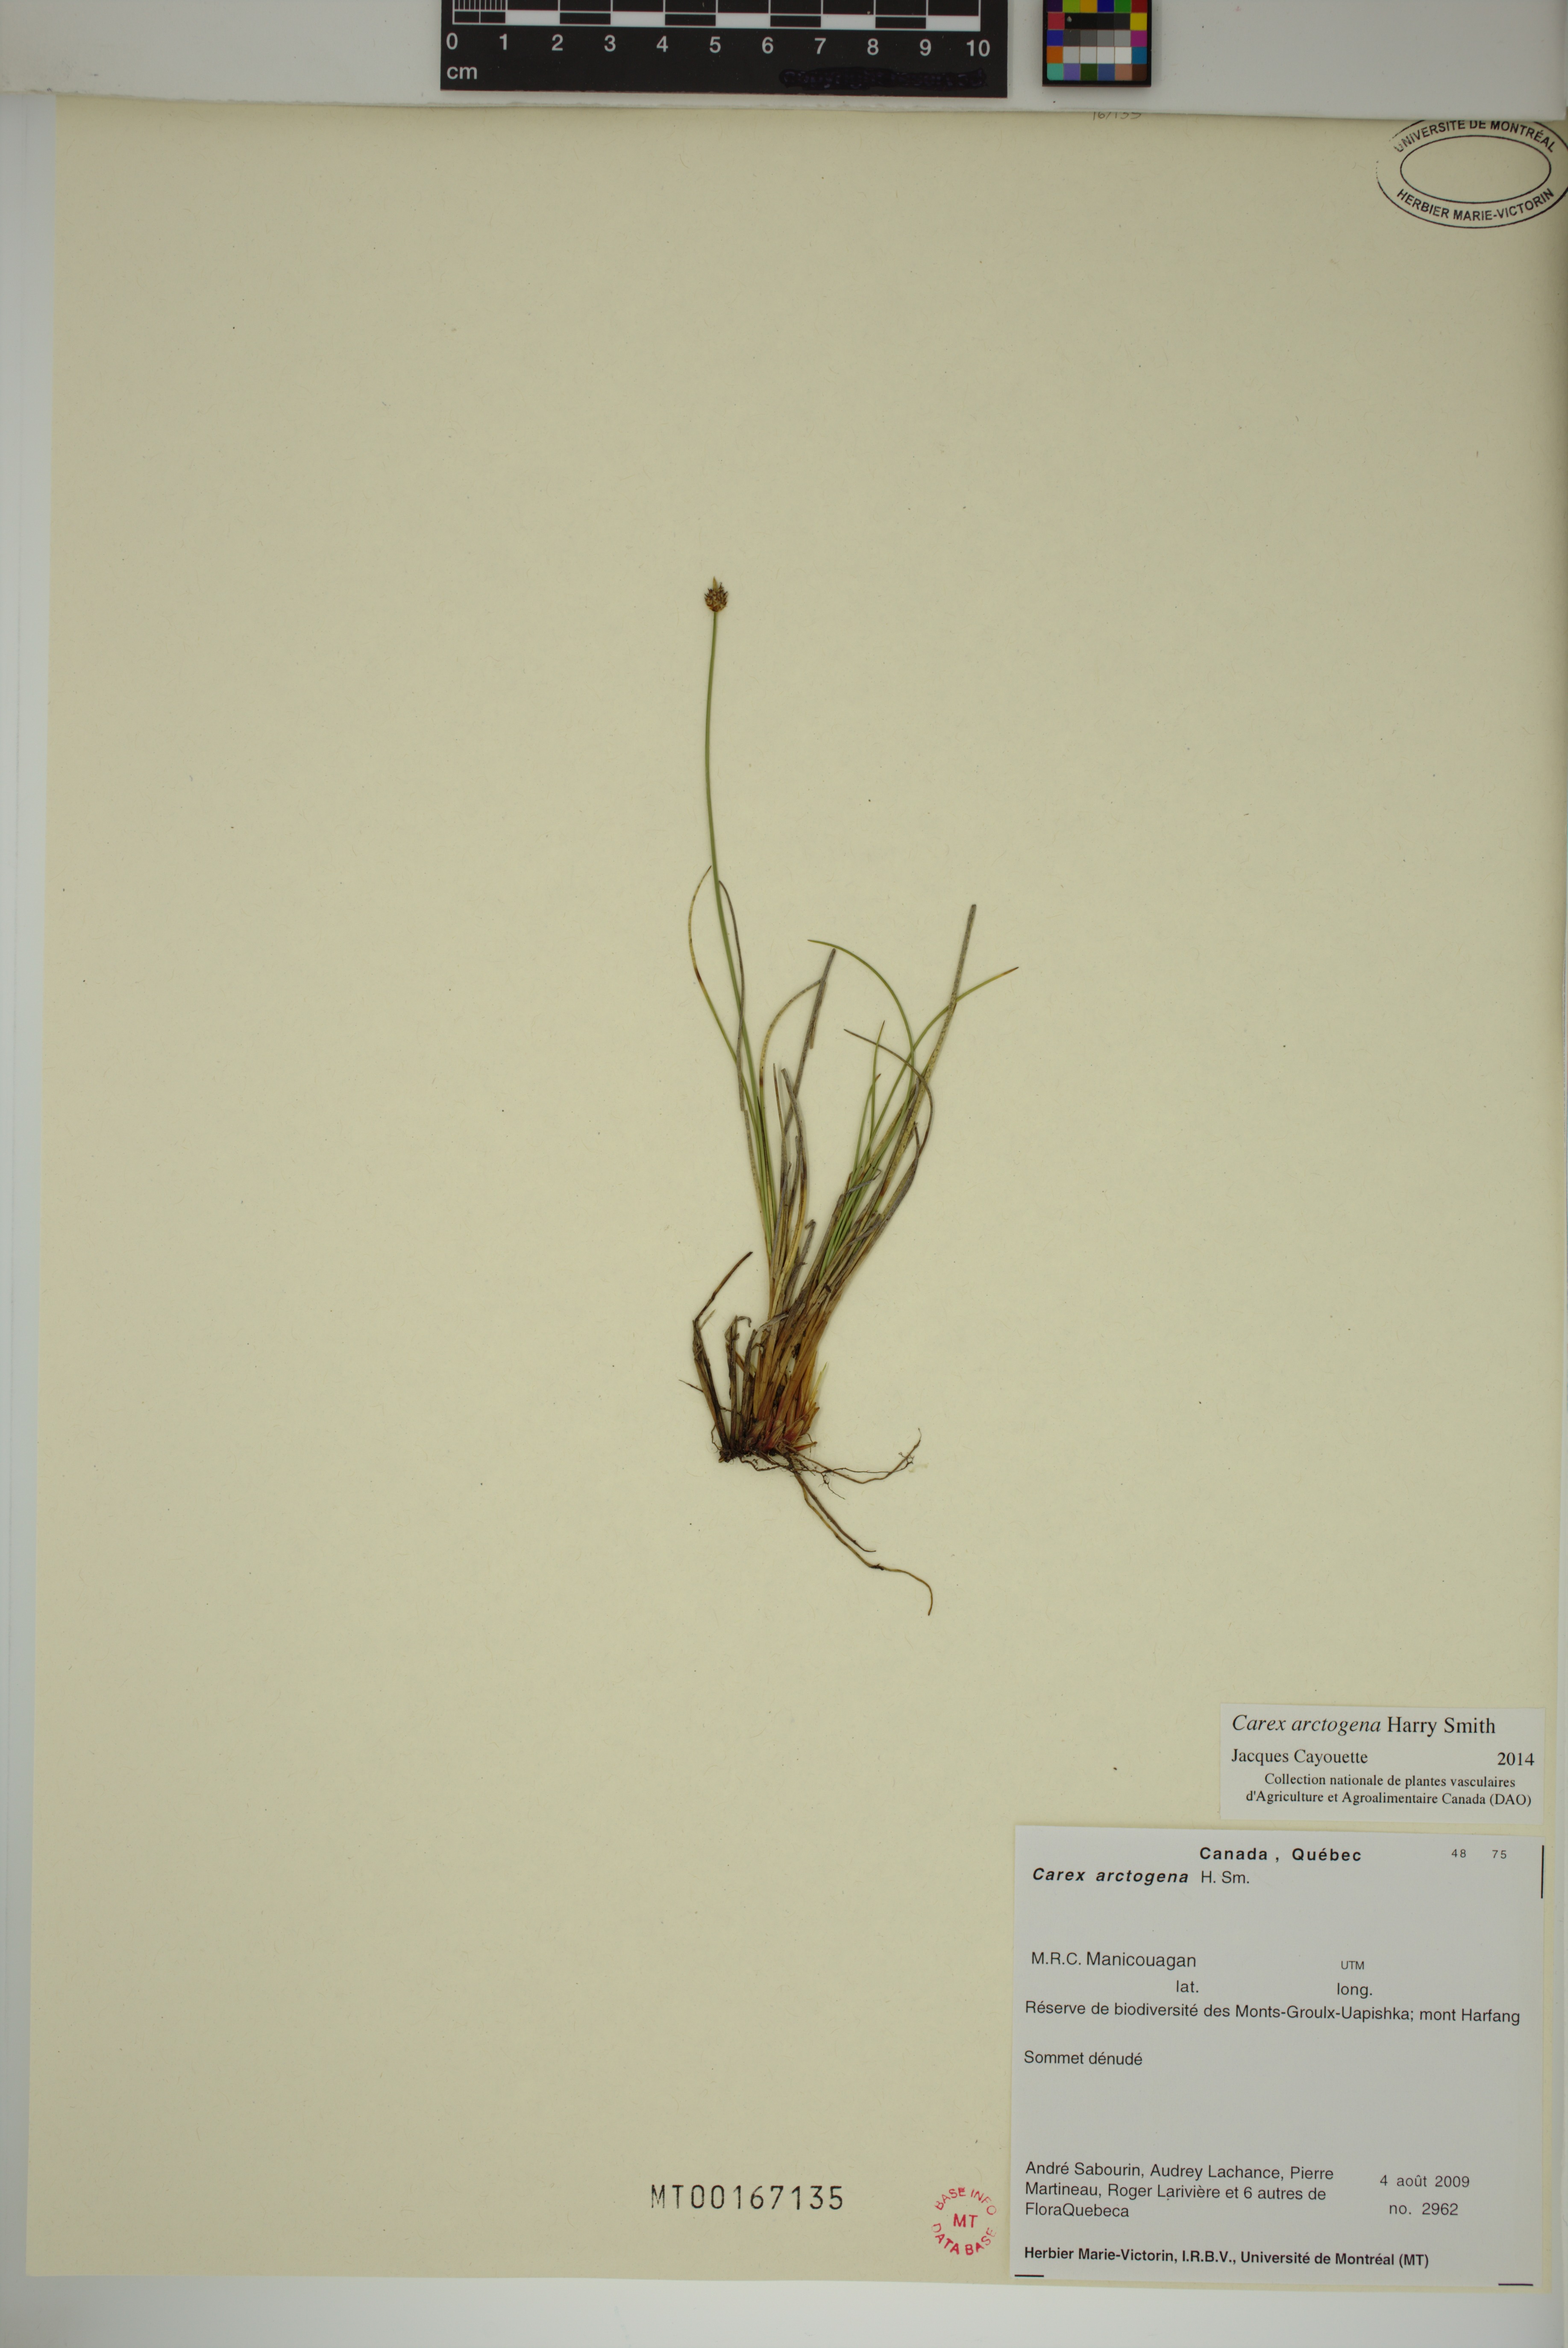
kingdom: Plantae
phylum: Tracheophyta
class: Liliopsida
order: Poales
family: Cyperaceae
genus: Carex
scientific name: Carex arctogena
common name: Black sedge
